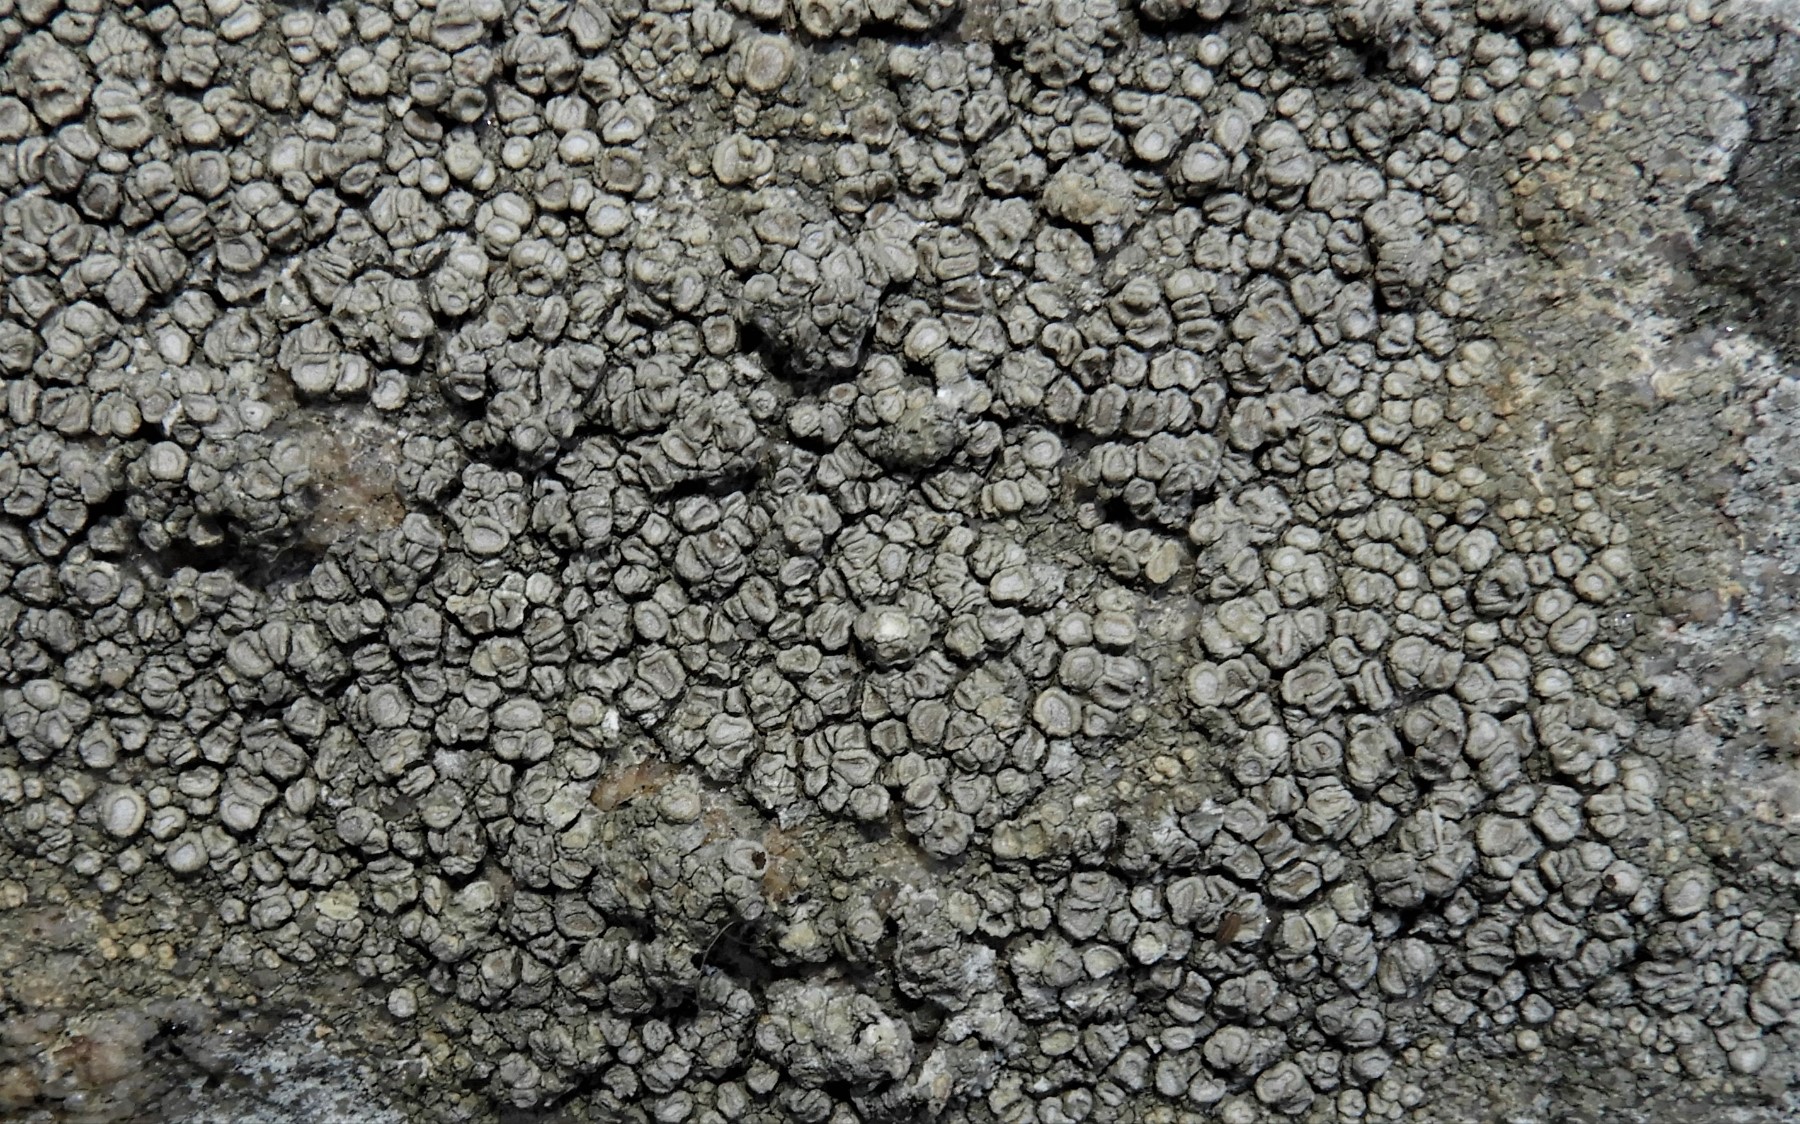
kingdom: Fungi
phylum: Ascomycota
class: Lecanoromycetes
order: Pertusariales
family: Ochrolechiaceae
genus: Ochrolechia
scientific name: Ochrolechia parella
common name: almindelig blegskivelav
